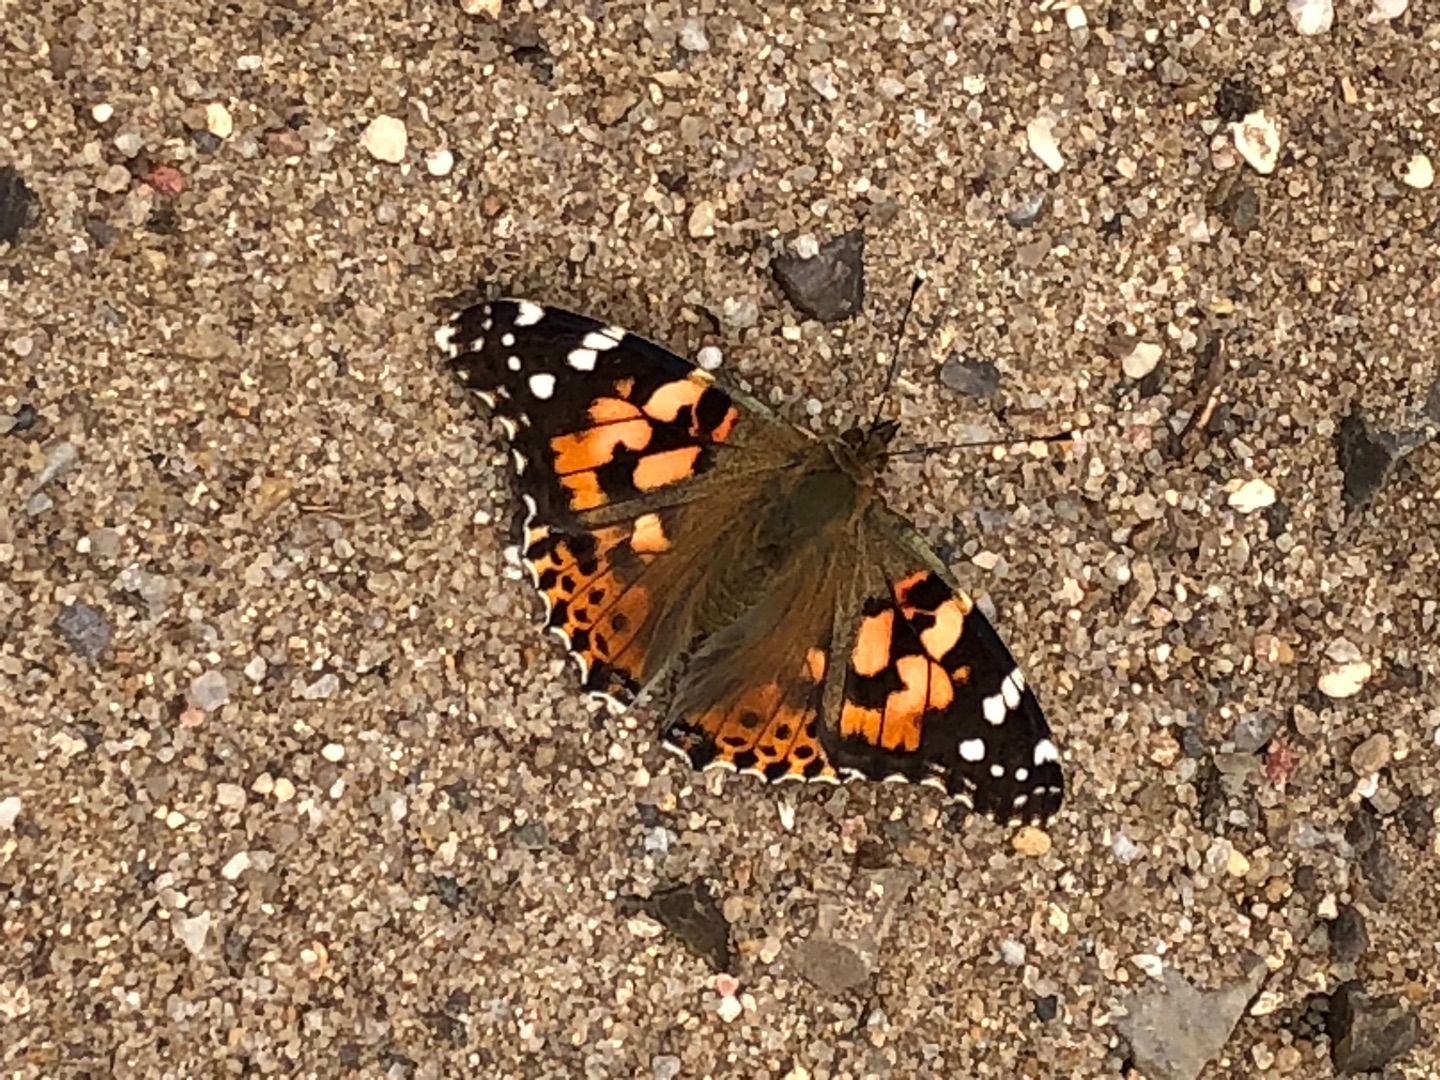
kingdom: Animalia
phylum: Arthropoda
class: Insecta
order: Lepidoptera
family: Nymphalidae
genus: Vanessa
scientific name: Vanessa cardui
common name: Tidselsommerfugl
